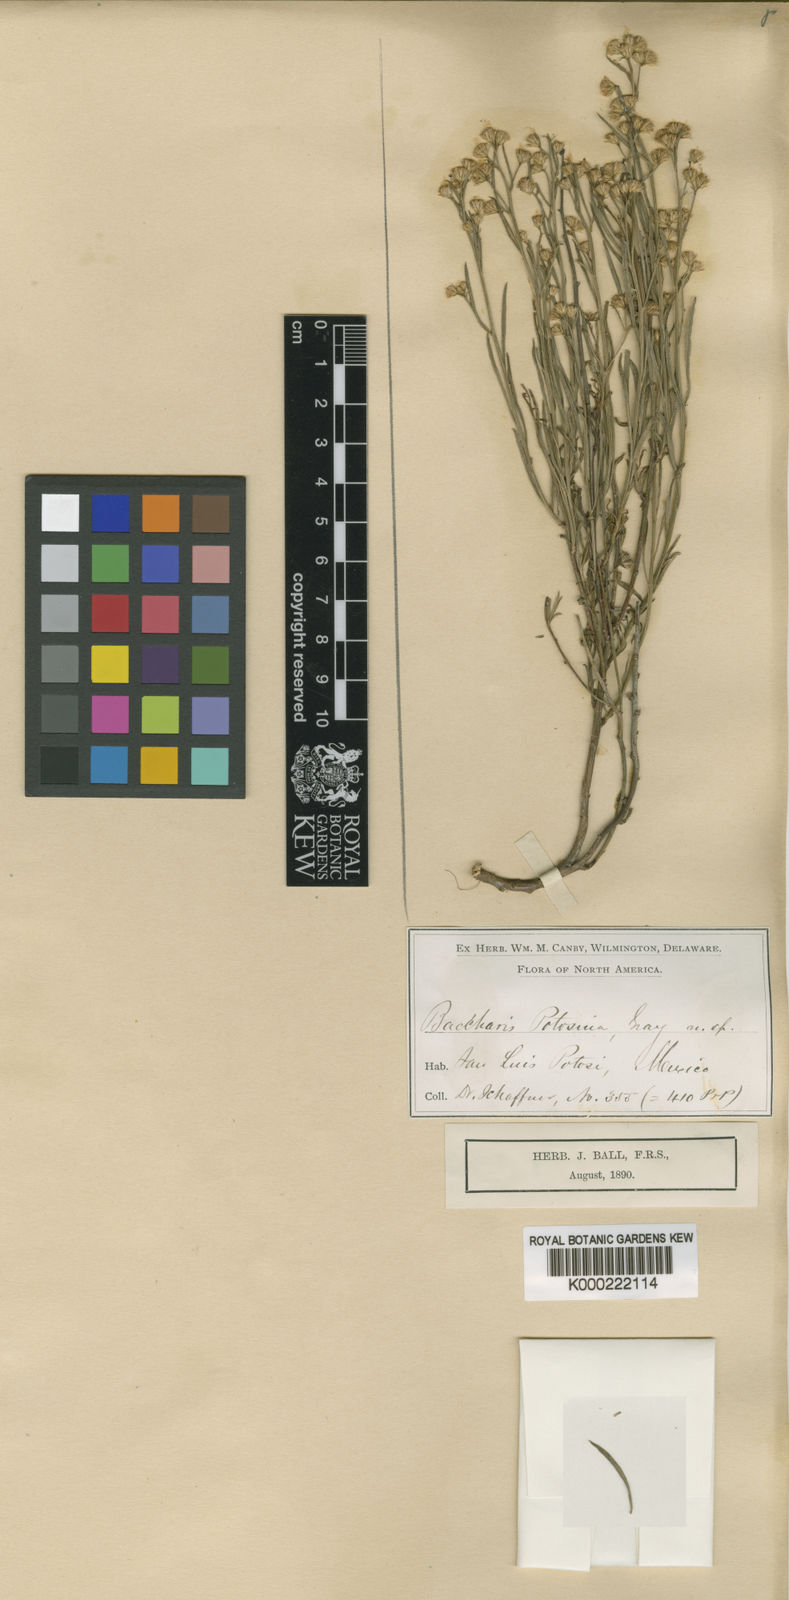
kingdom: Plantae
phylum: Tracheophyta
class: Magnoliopsida
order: Asterales
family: Asteraceae
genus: Baccharis
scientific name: Baccharis sulcata
